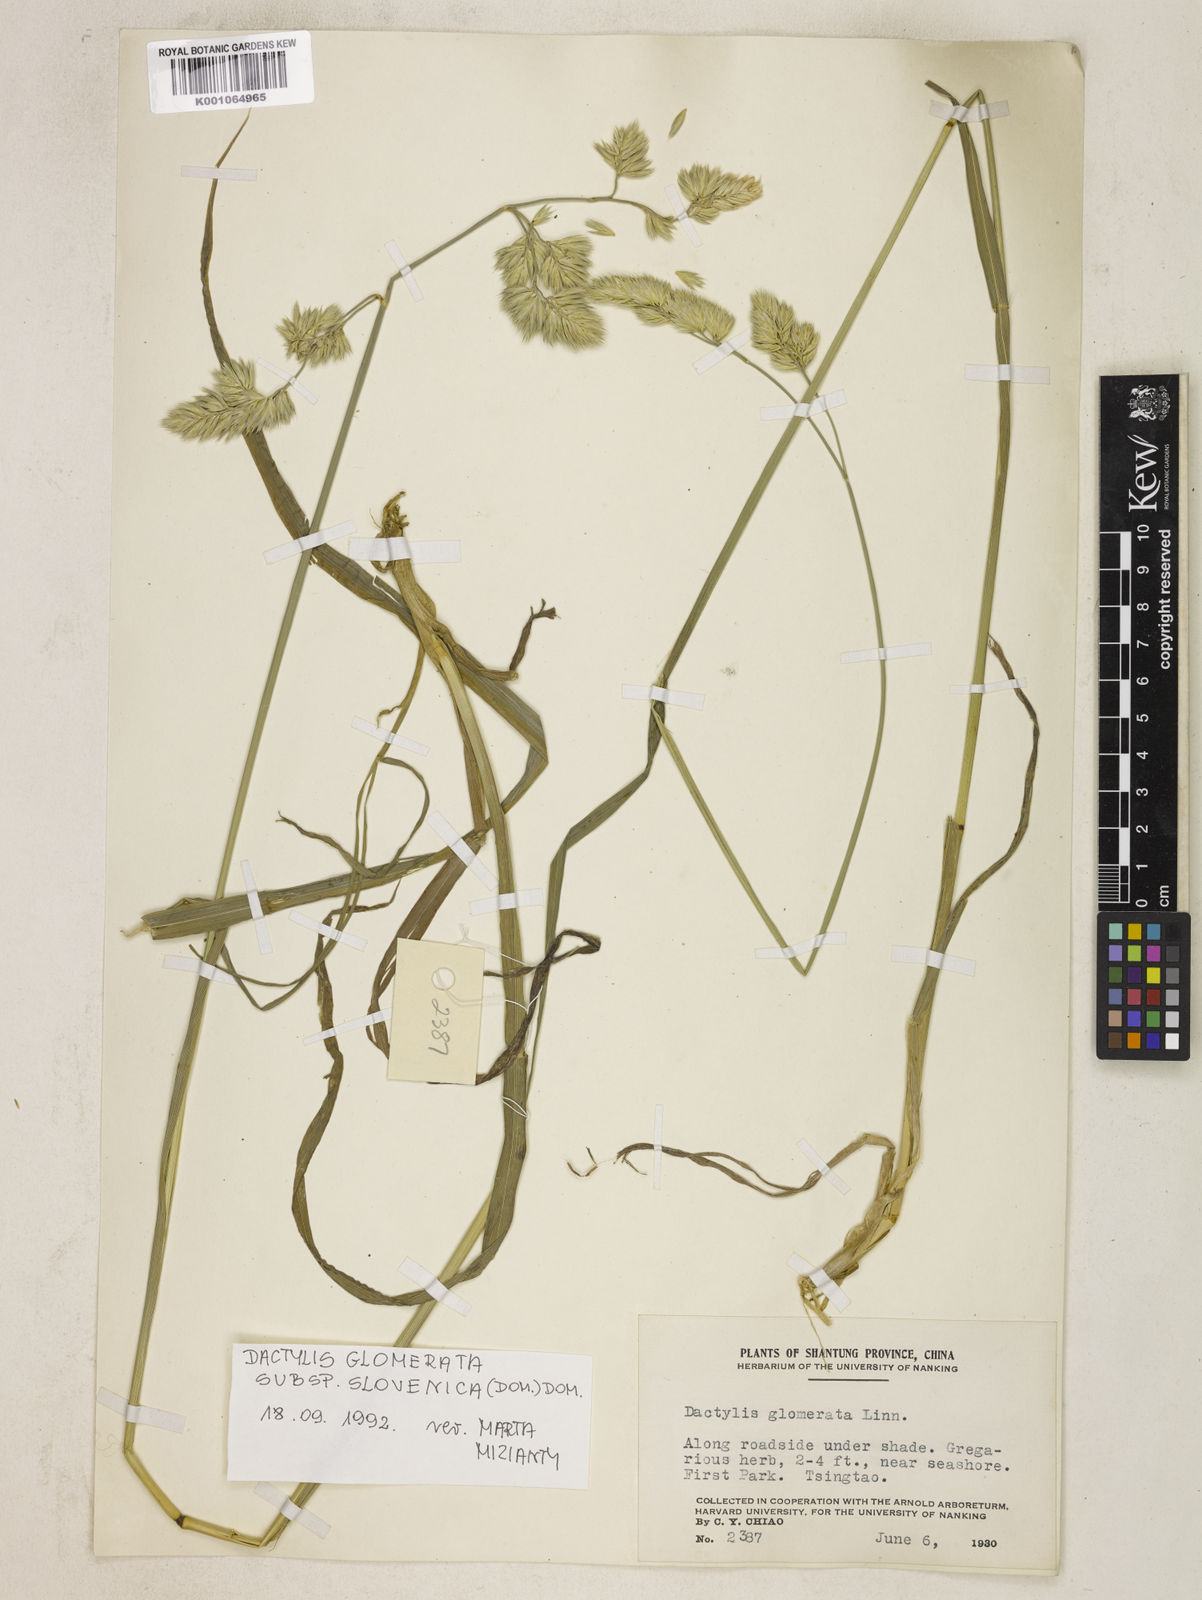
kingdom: Plantae
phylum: Tracheophyta
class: Liliopsida
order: Poales
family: Poaceae
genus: Dactylis
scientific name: Dactylis glomerata
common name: Orchardgrass
